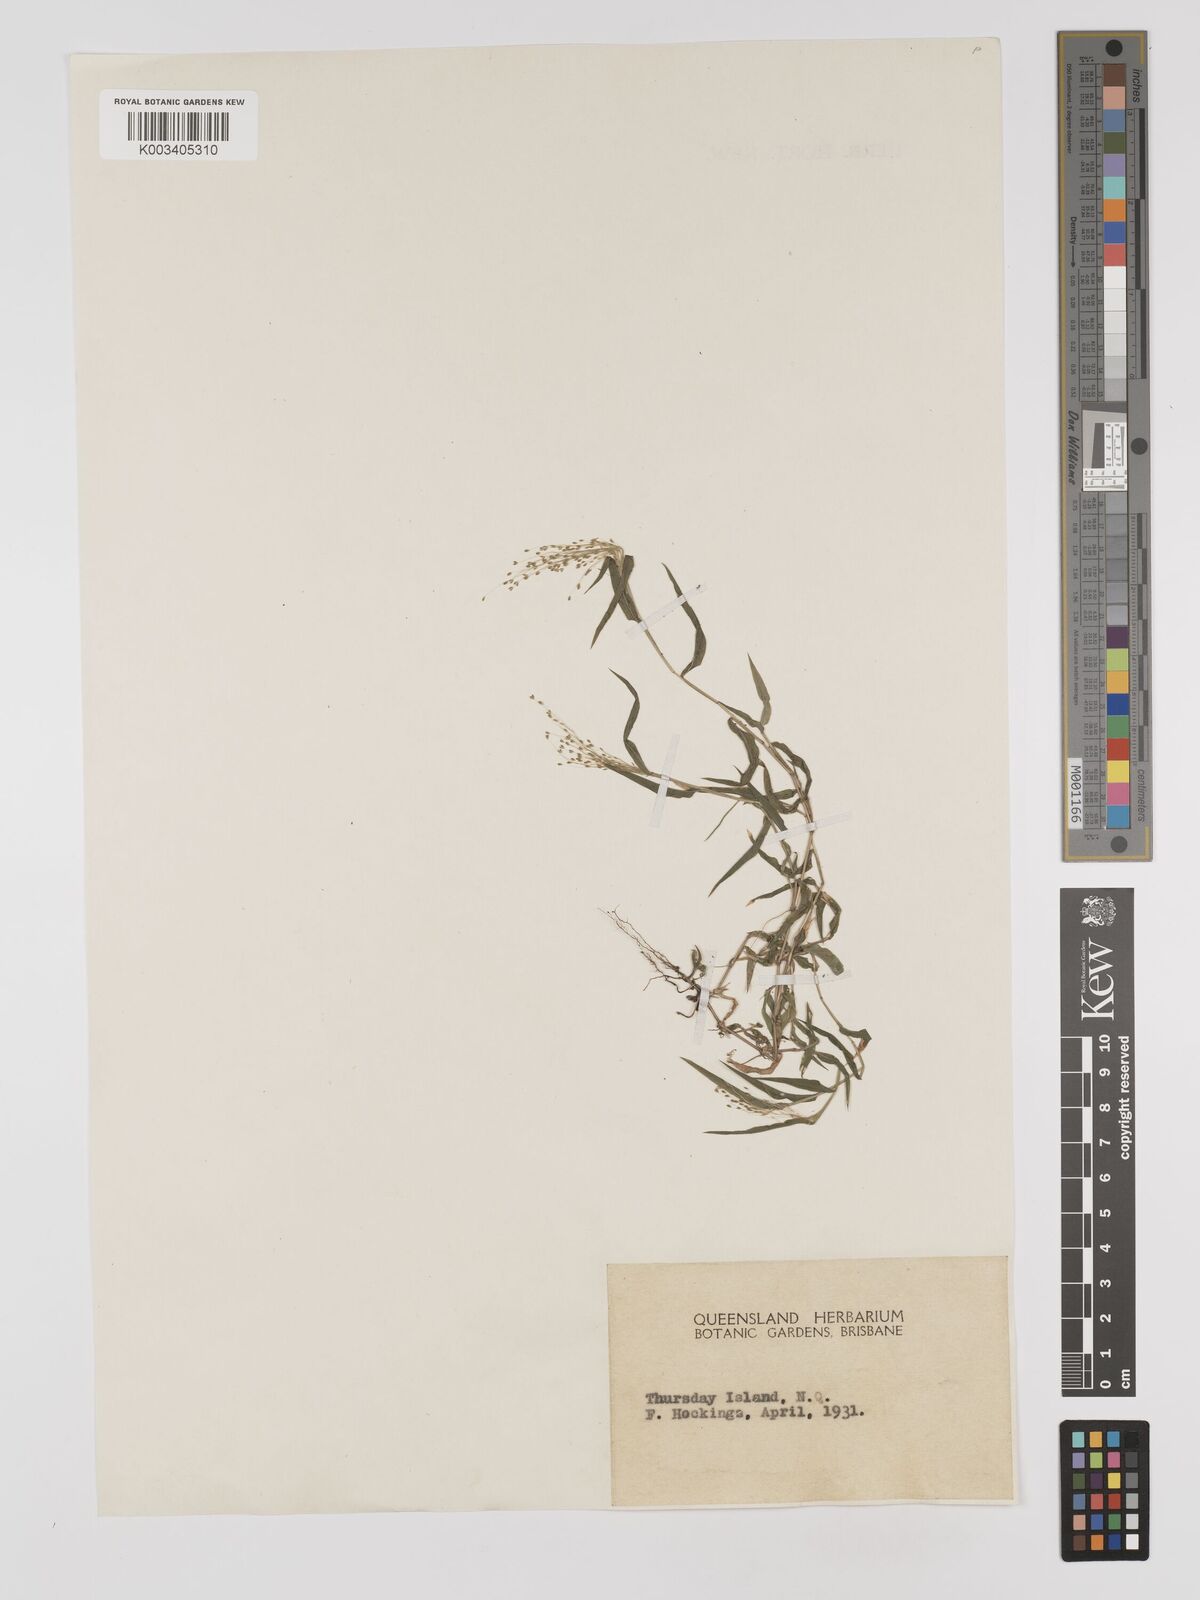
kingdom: Plantae
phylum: Tracheophyta
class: Liliopsida
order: Poales
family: Poaceae
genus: Panicum
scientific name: Panicum trichoides
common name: Tickle grass
